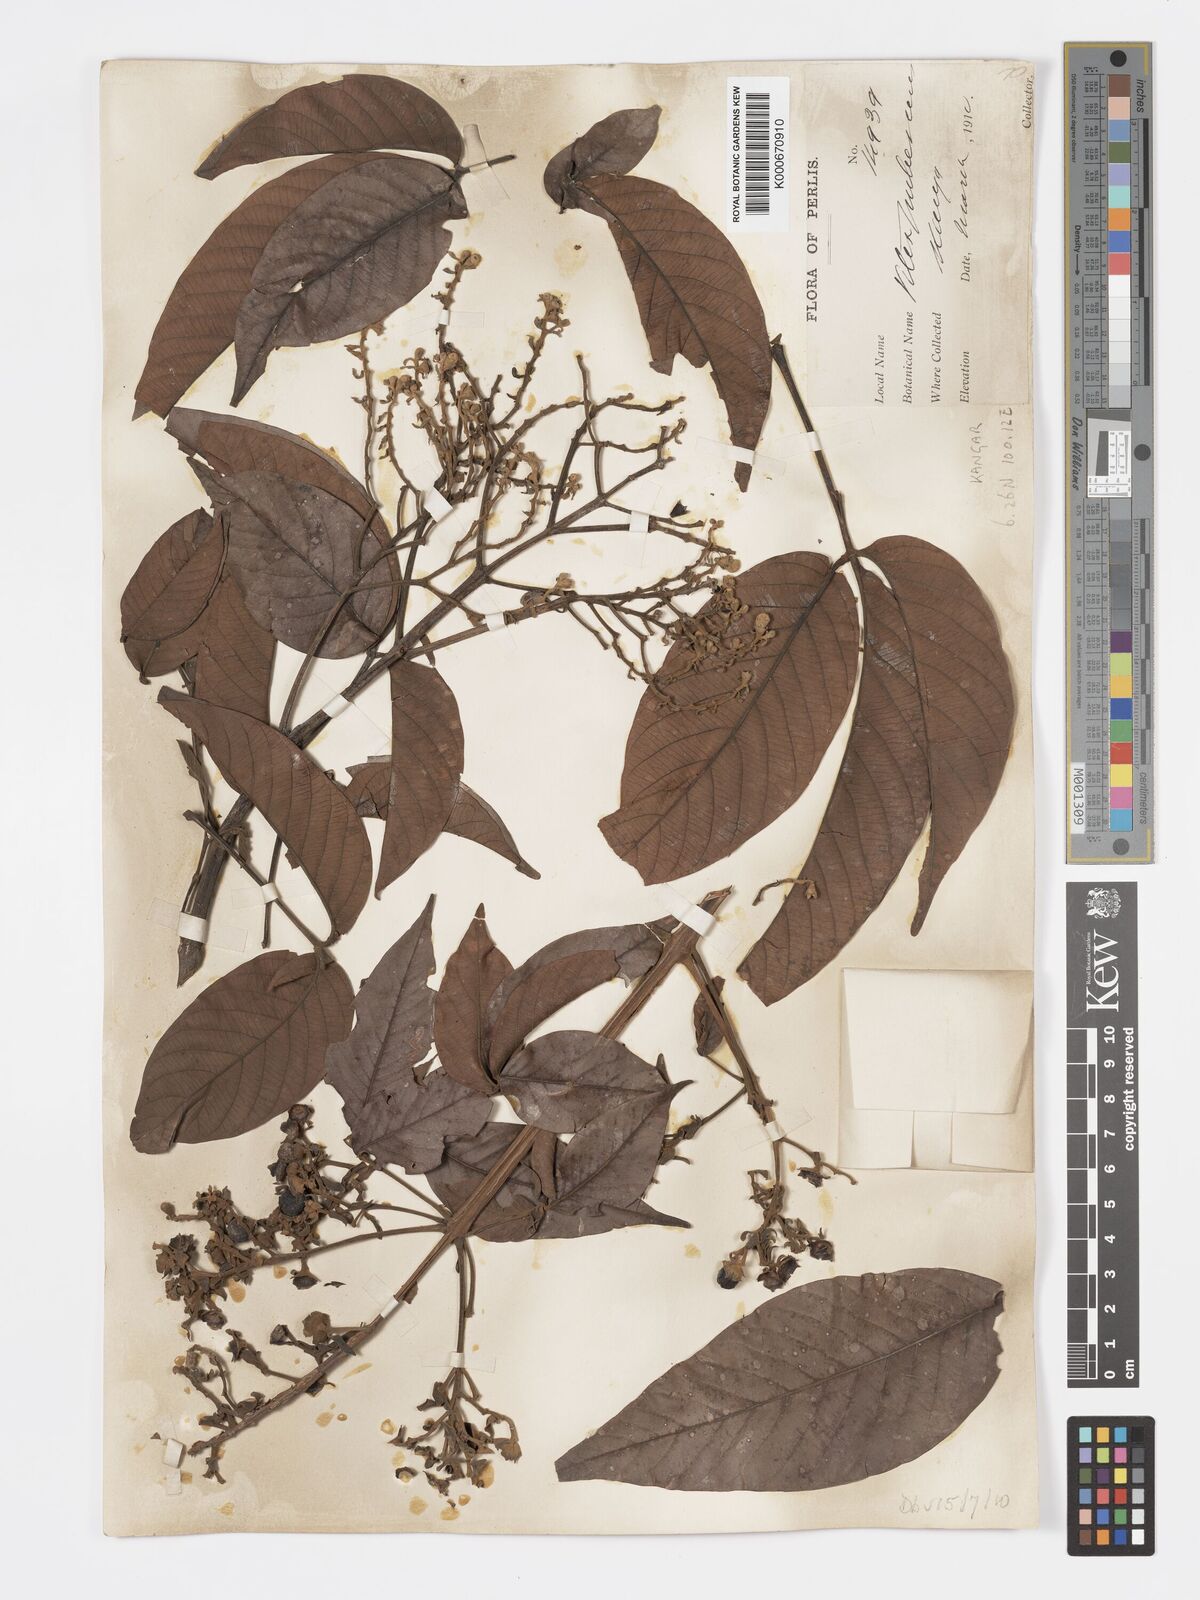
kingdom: Plantae
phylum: Tracheophyta
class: Magnoliopsida
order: Lamiales
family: Lamiaceae
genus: Vitex
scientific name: Vitex pinnata
